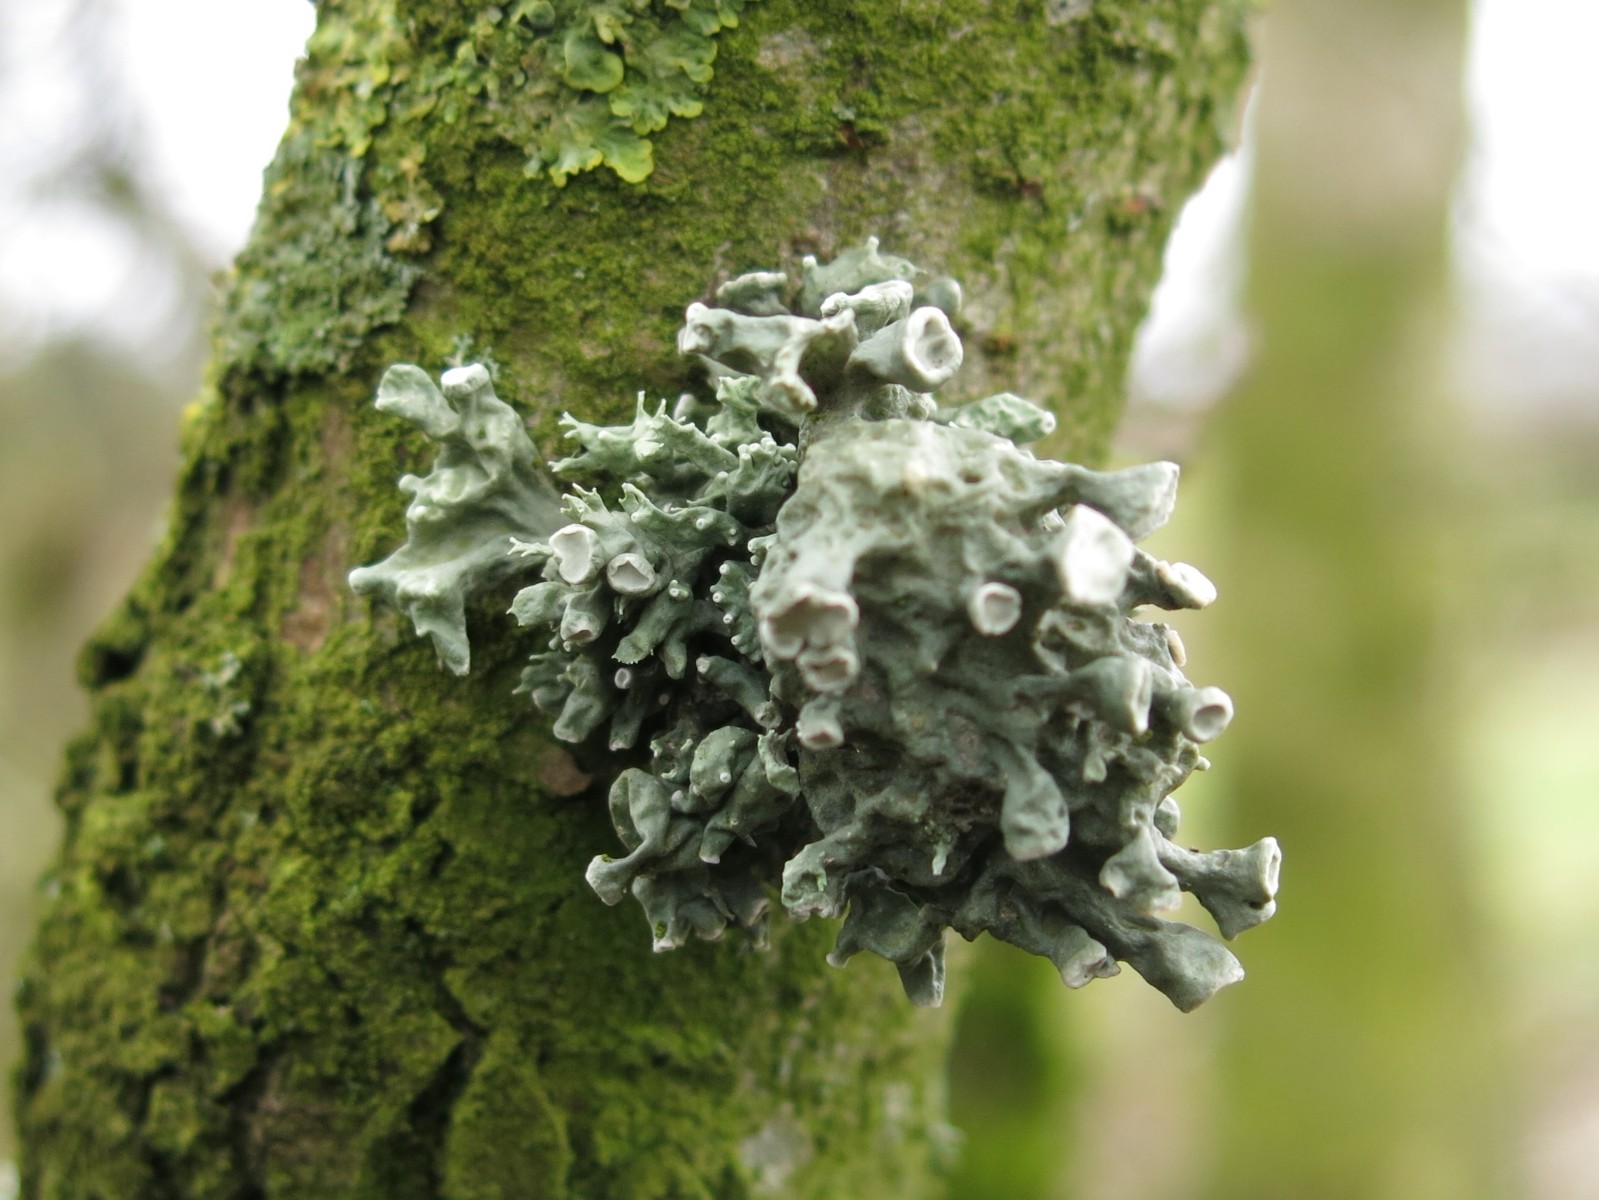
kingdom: Fungi
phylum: Ascomycota
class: Lecanoromycetes
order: Lecanorales
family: Ramalinaceae
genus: Ramalina
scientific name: Ramalina fastigiata
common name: tue-grenlav
